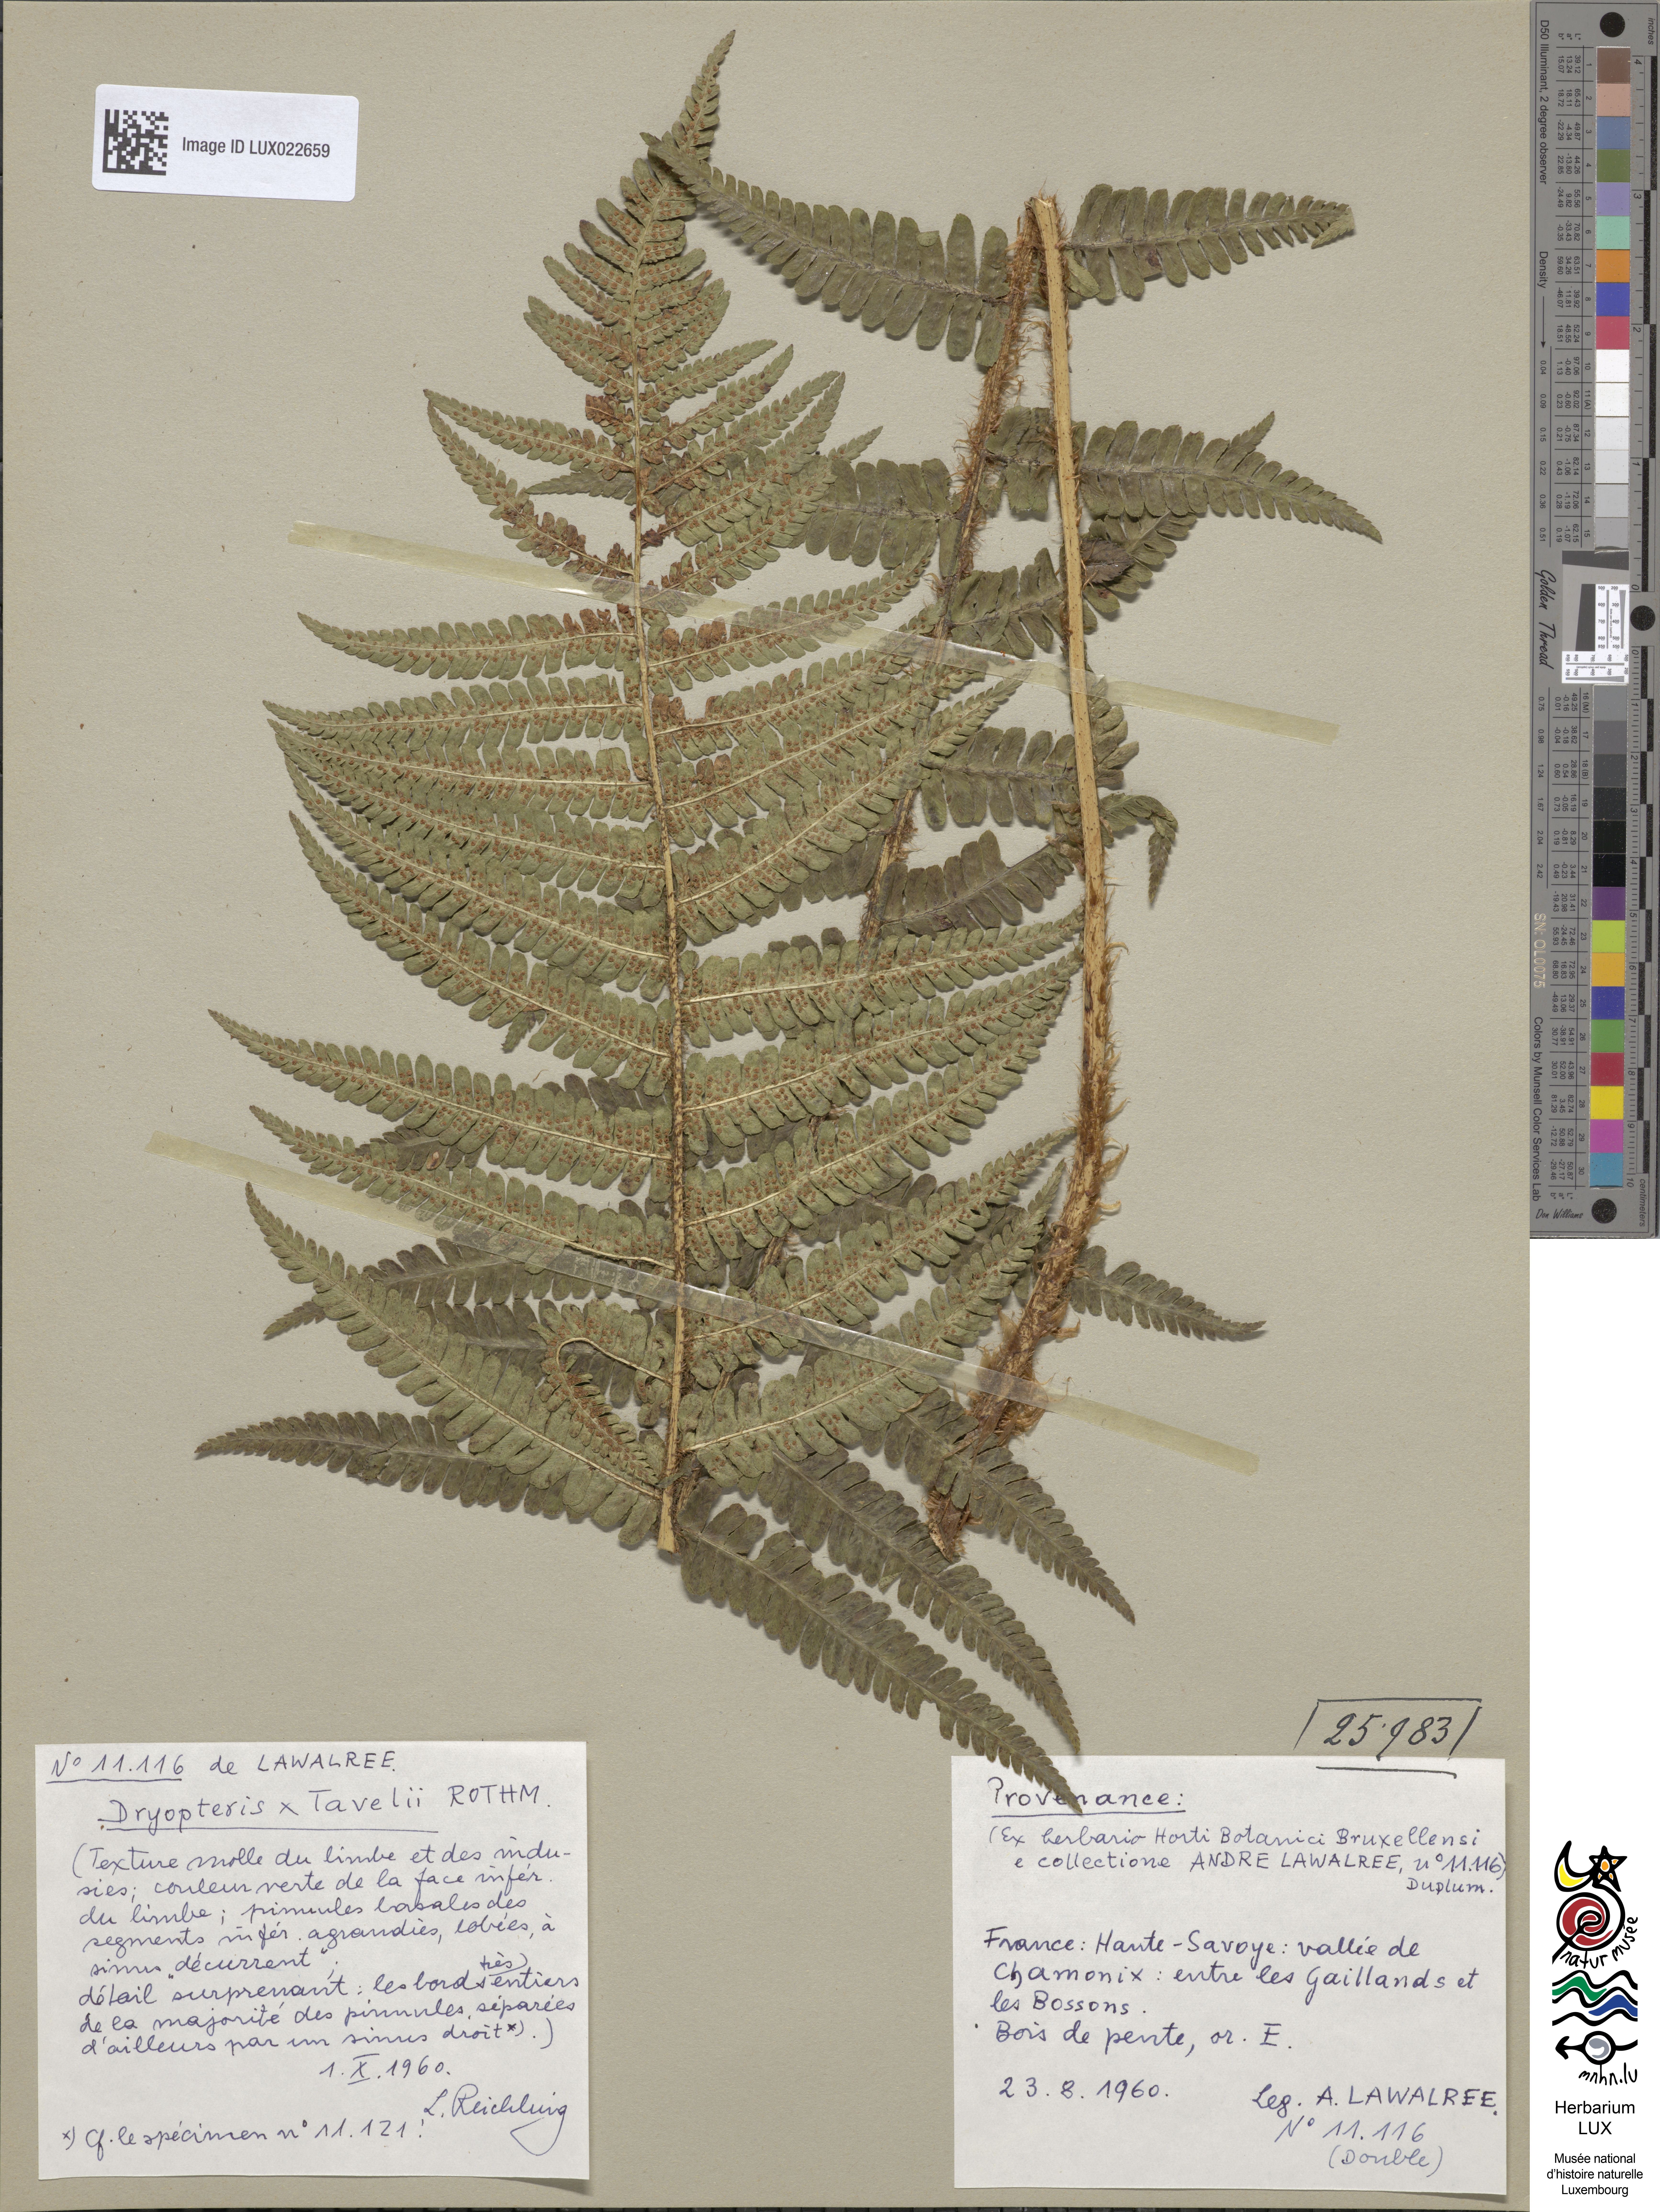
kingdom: Plantae
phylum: Tracheophyta
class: Polypodiopsida
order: Polypodiales
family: Dryopteridaceae
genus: Dryopteris
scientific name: Dryopteris borreri
